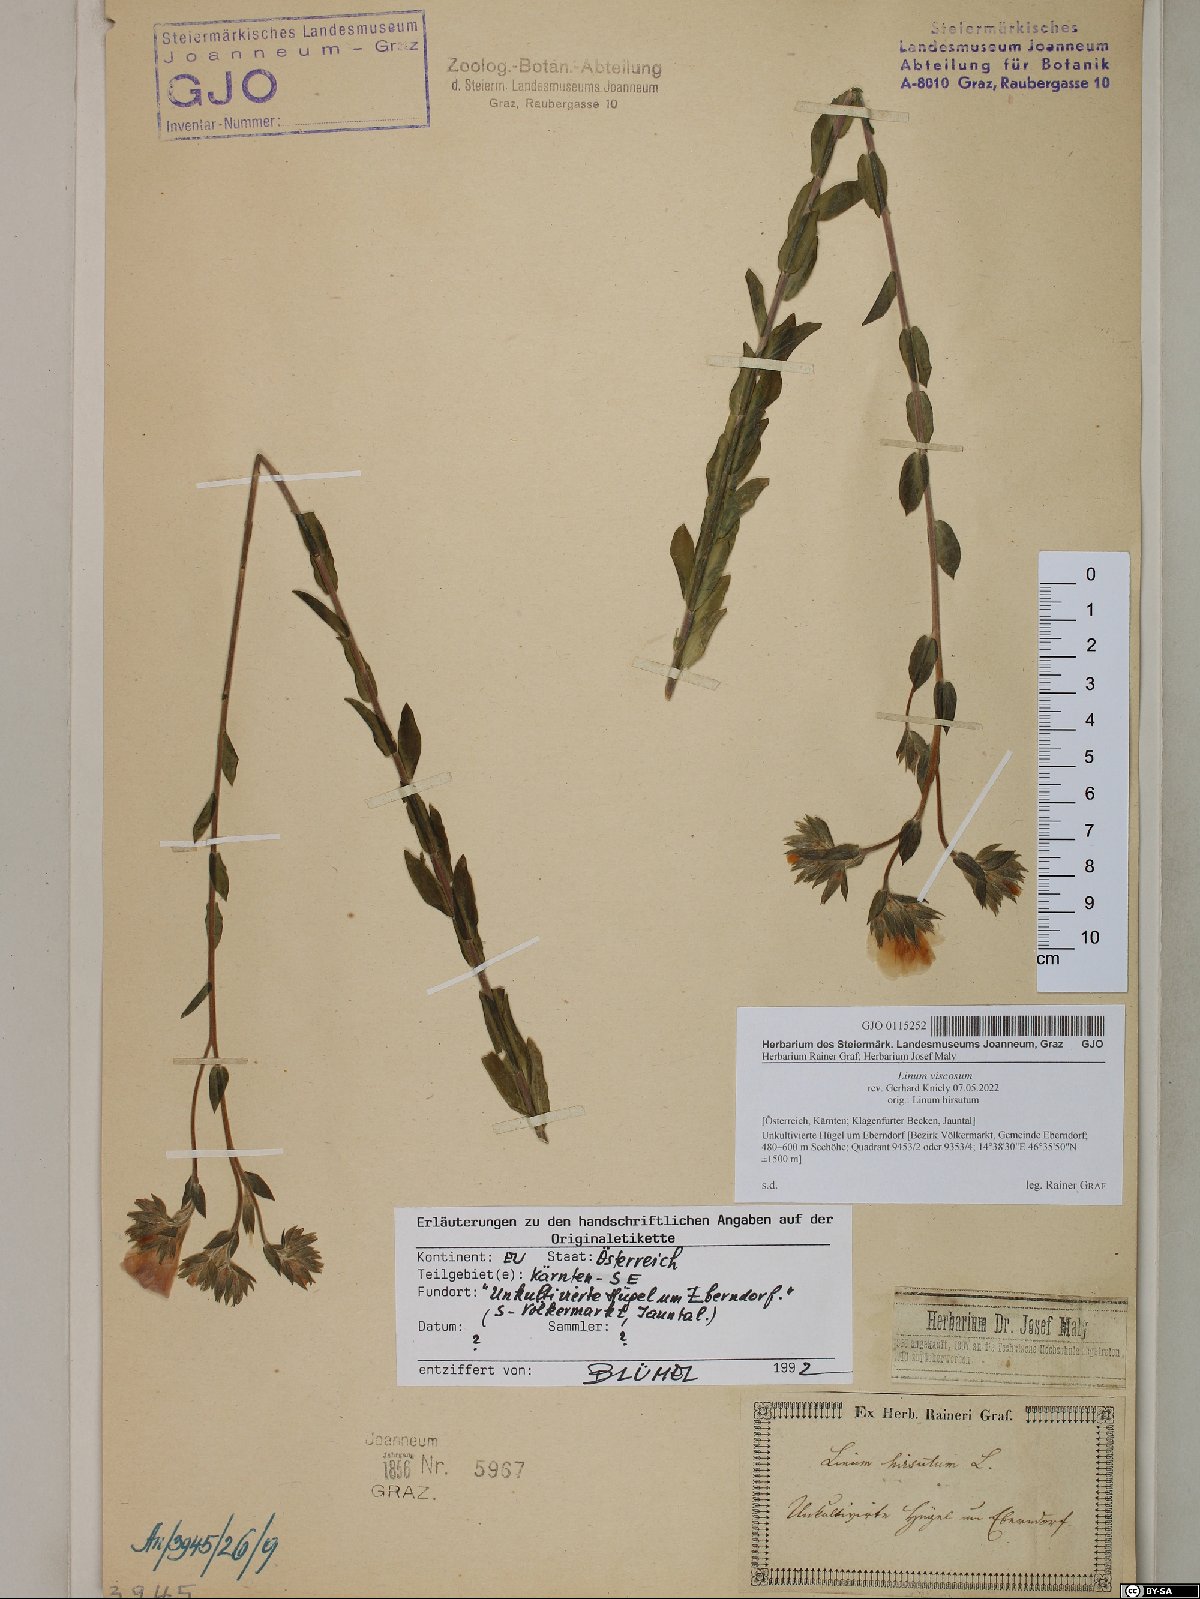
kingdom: Plantae
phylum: Tracheophyta
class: Magnoliopsida
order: Malpighiales
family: Linaceae
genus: Linum
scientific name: Linum viscosum
